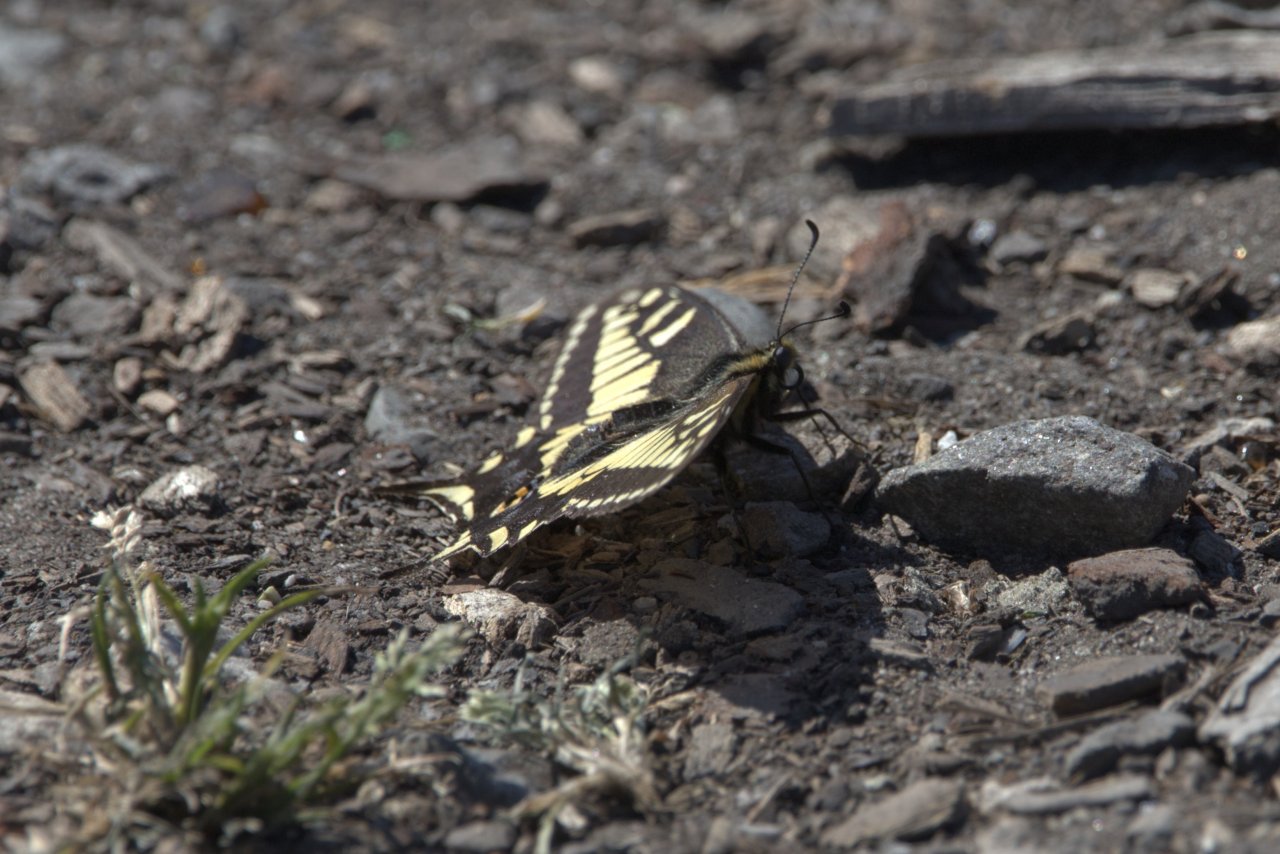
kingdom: Animalia
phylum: Arthropoda
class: Insecta
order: Lepidoptera
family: Papilionidae
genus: Papilio
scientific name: Papilio zelicaon
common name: Anise Swallowtail
